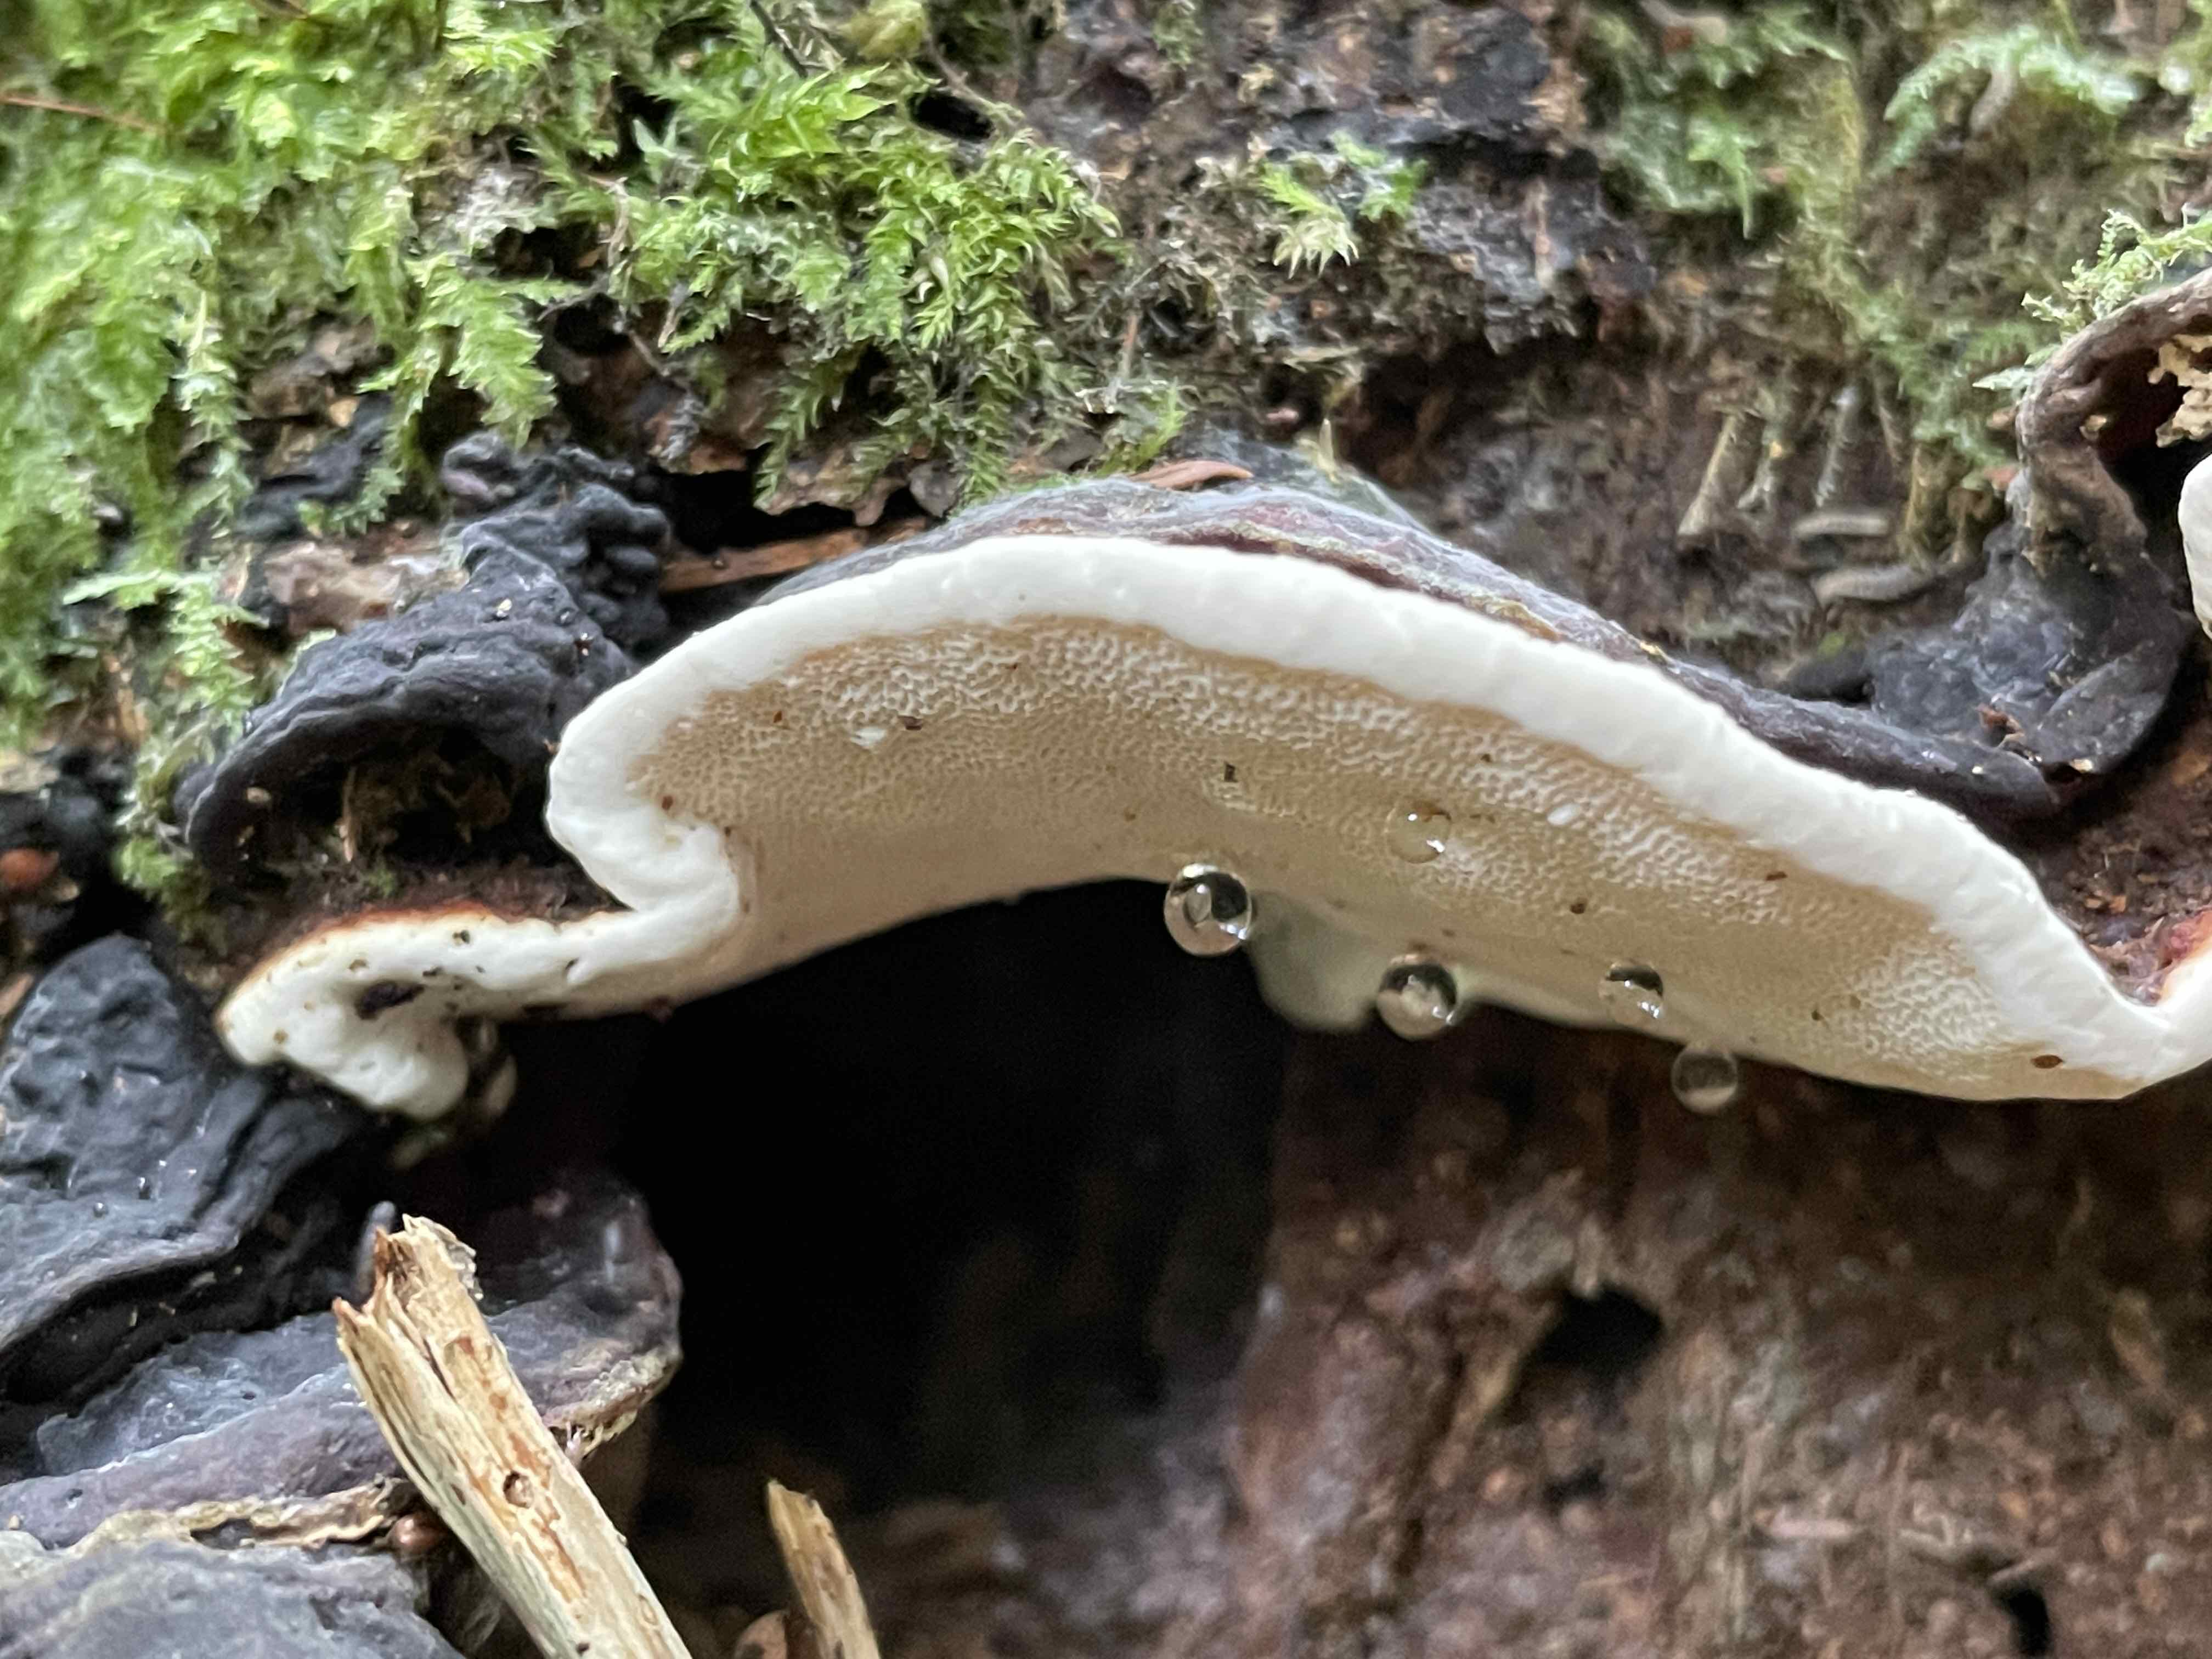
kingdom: Fungi
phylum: Basidiomycota
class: Agaricomycetes
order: Russulales
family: Bondarzewiaceae
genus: Heterobasidion
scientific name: Heterobasidion annosum
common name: almindelig rodfordærver
